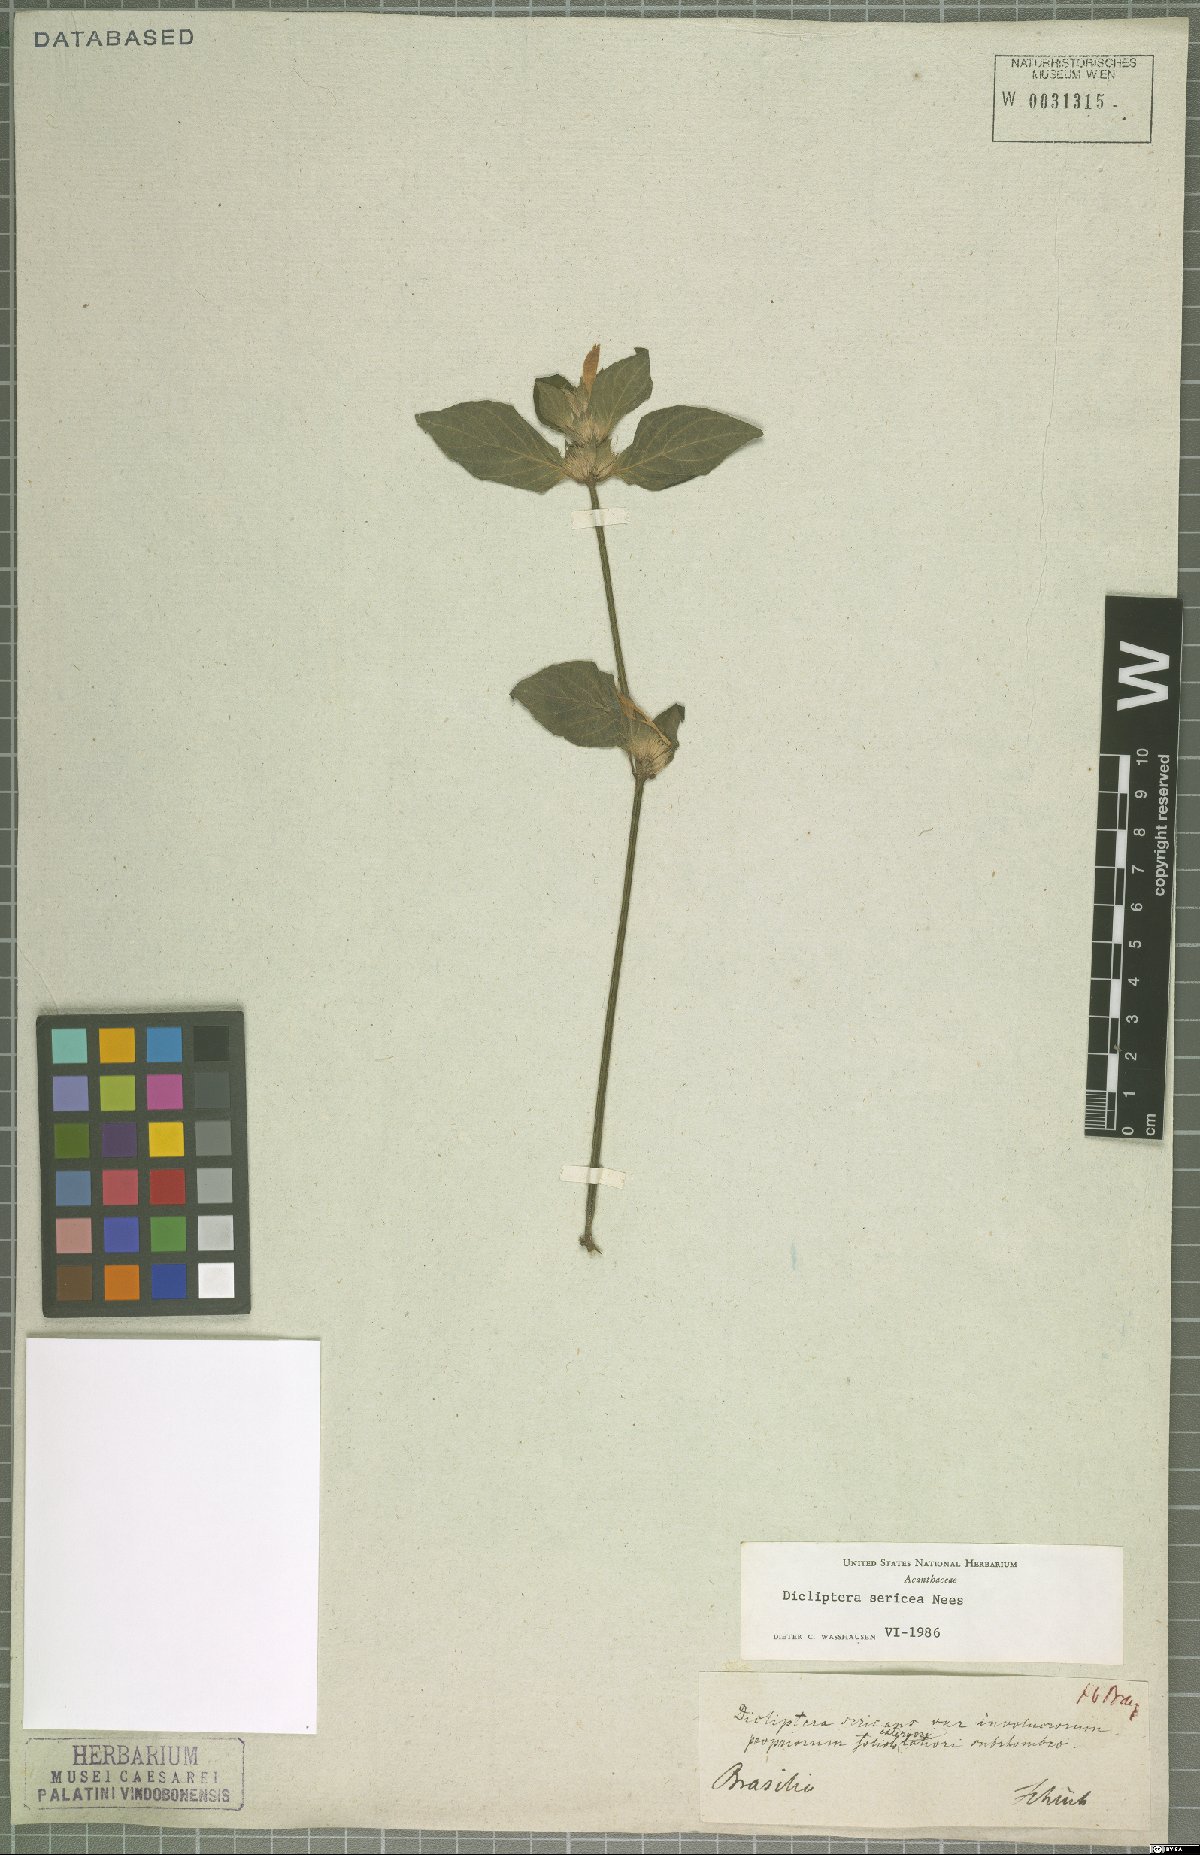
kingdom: Plantae
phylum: Tracheophyta
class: Magnoliopsida
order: Lamiales
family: Acanthaceae
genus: Dicliptera
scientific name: Dicliptera squarrosa
